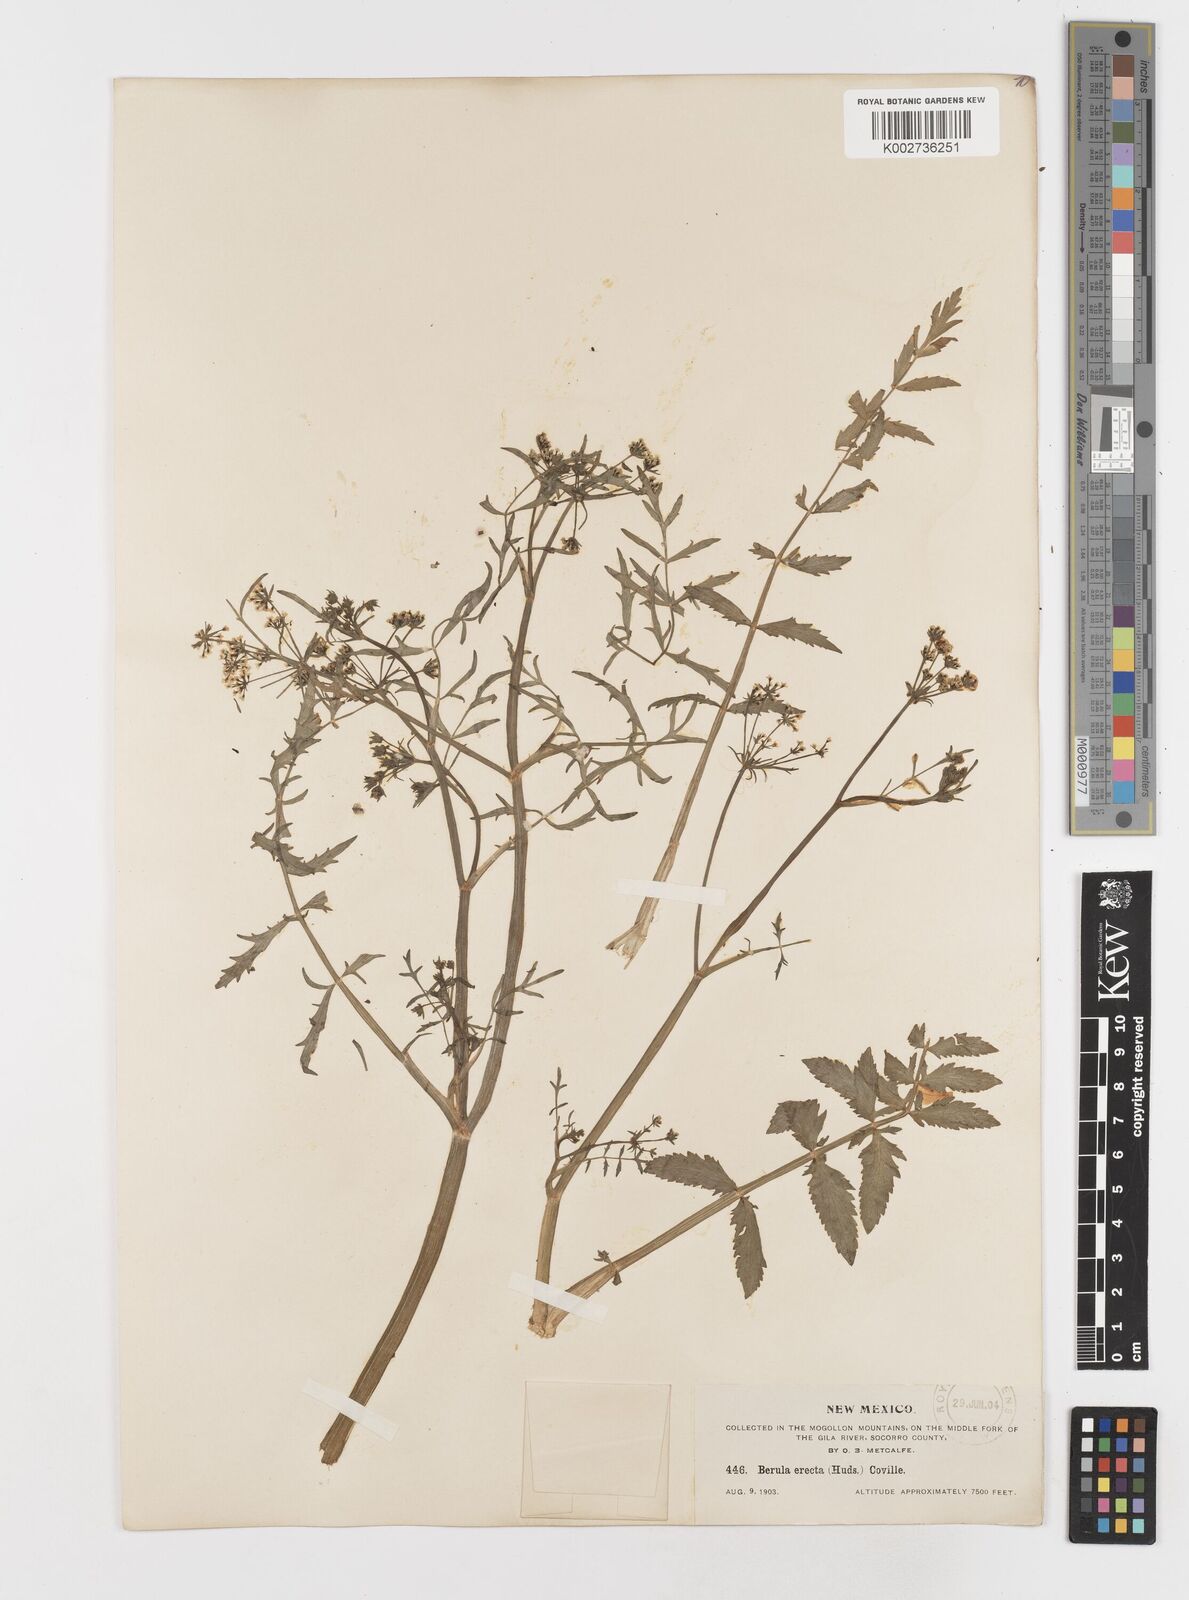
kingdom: Plantae
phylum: Tracheophyta
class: Magnoliopsida
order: Apiales
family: Apiaceae
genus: Berula
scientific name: Berula erecta
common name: Lesser water-parsnip
